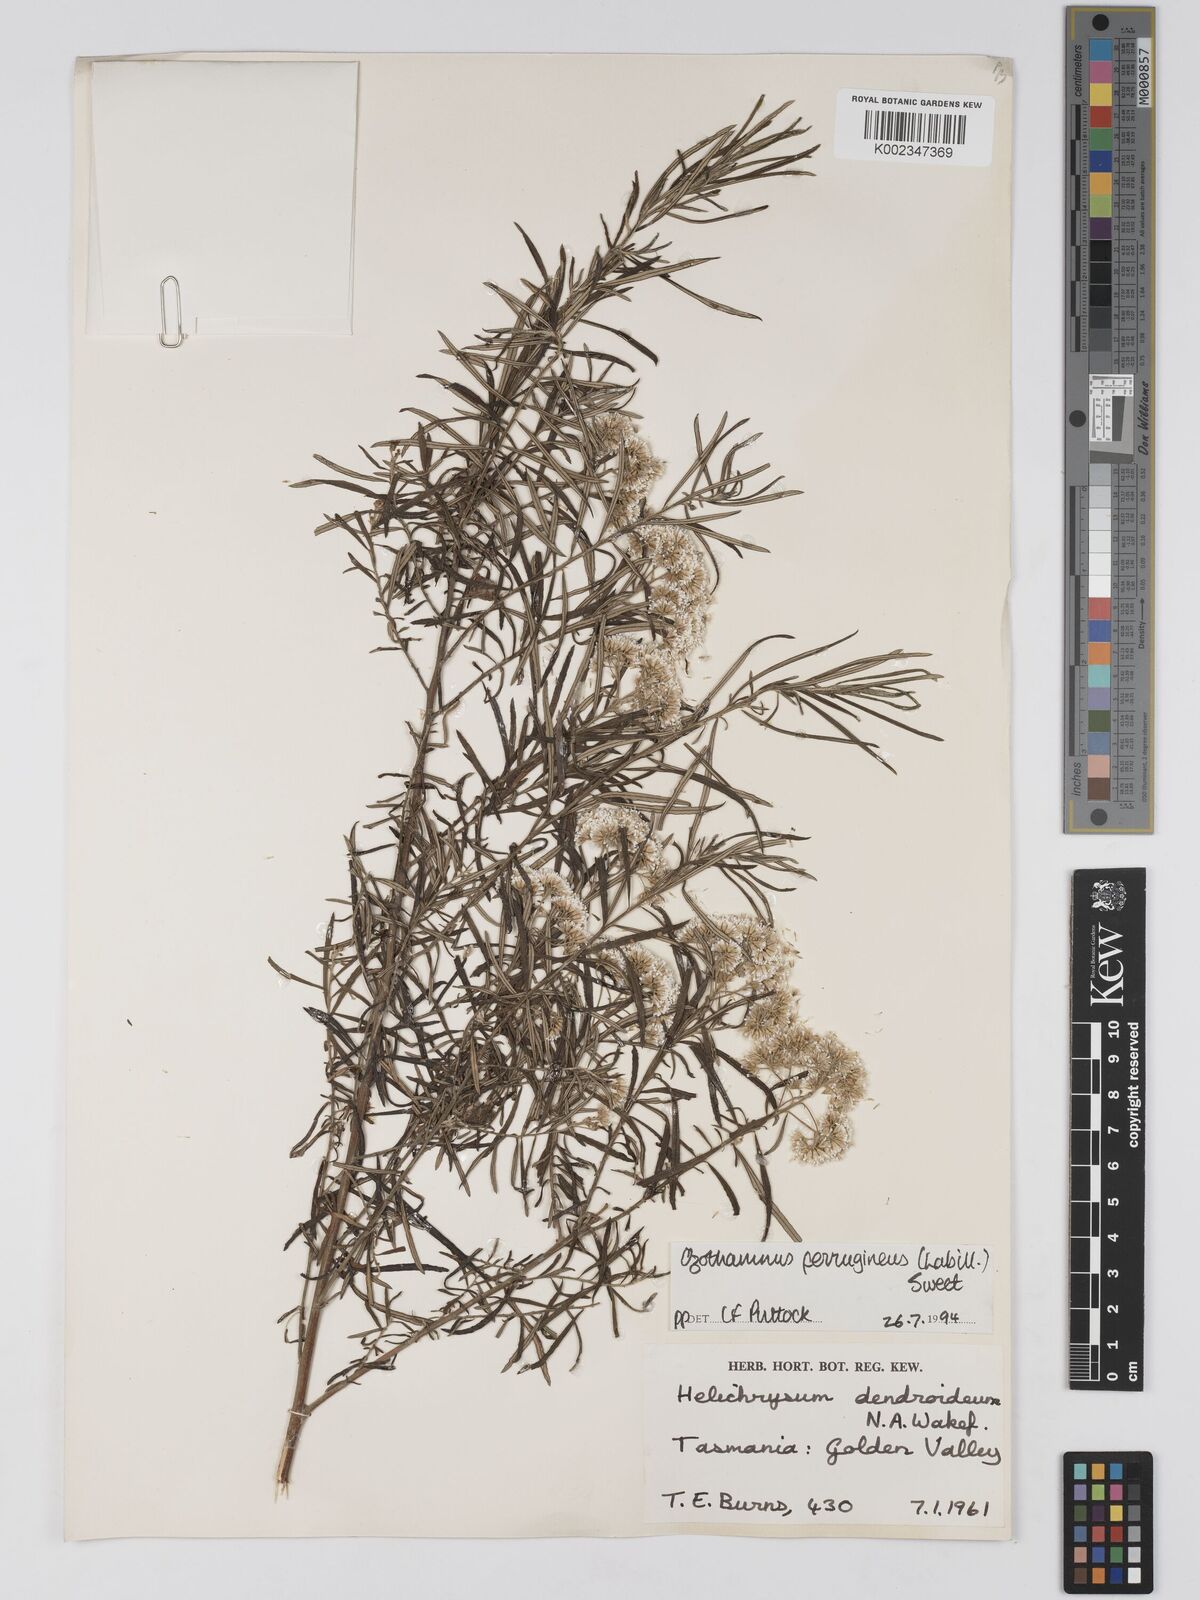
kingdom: Plantae
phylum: Tracheophyta
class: Magnoliopsida
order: Asterales
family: Asteraceae
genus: Ozothamnus
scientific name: Ozothamnus ferrugineus
